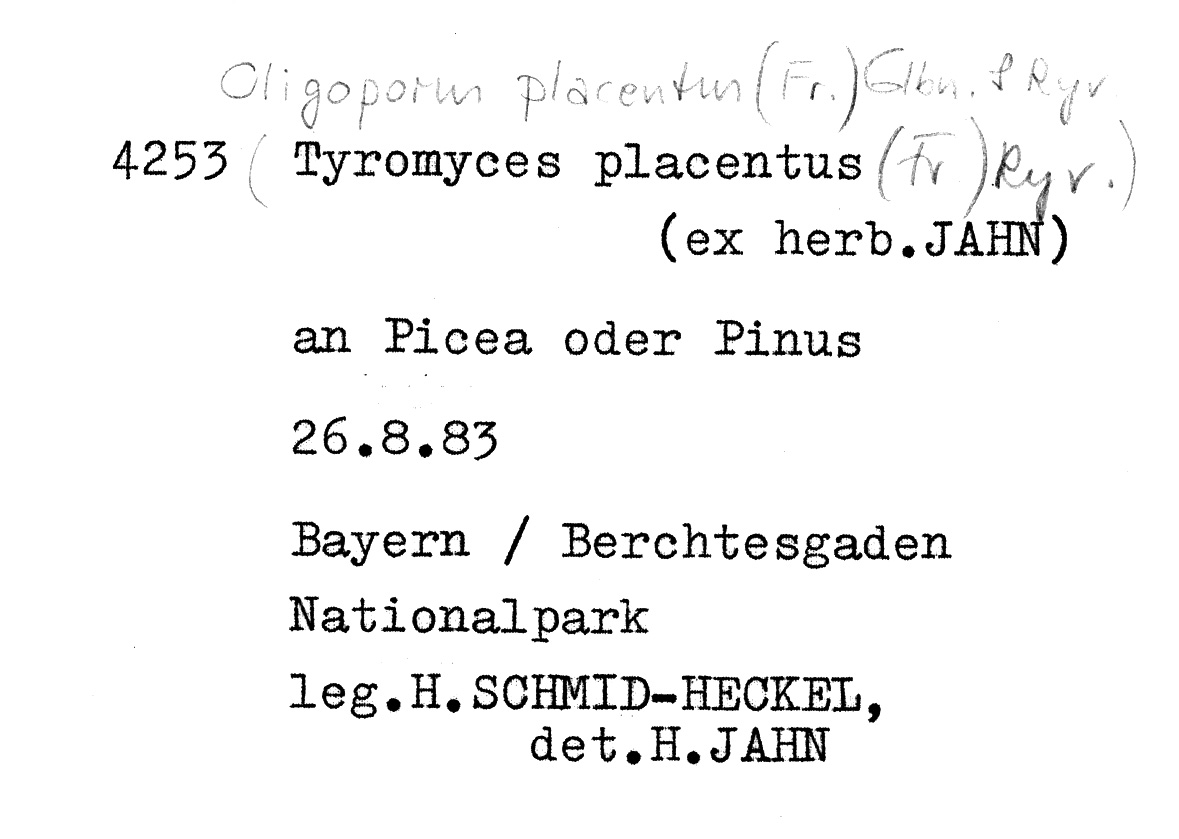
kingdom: Fungi
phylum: Basidiomycota
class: Agaricomycetes
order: Polyporales
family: Polyporaceae
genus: Rhodonia
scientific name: Rhodonia placenta
